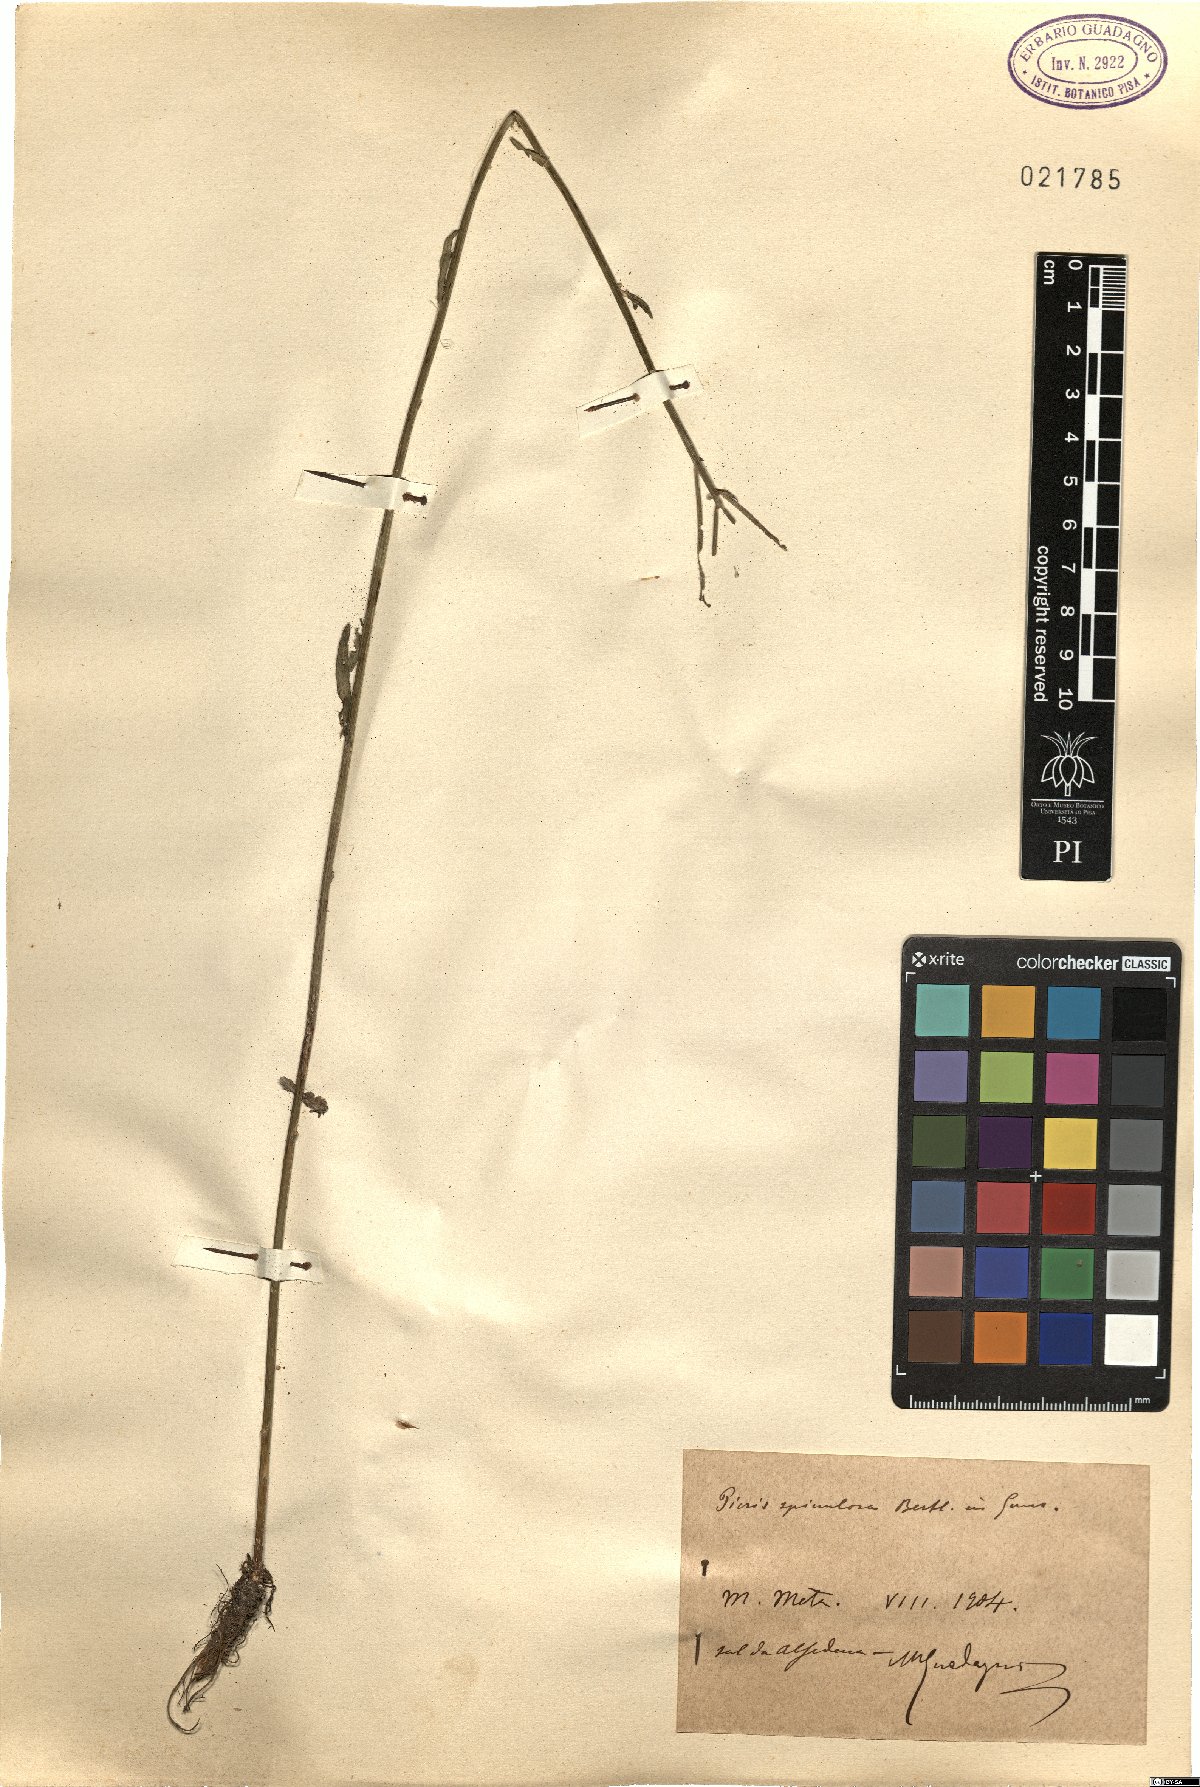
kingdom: Plantae
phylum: Tracheophyta
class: Magnoliopsida
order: Asterales
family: Asteraceae
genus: Picris
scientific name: Picris hieracioides
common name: Hawkweed oxtongue
